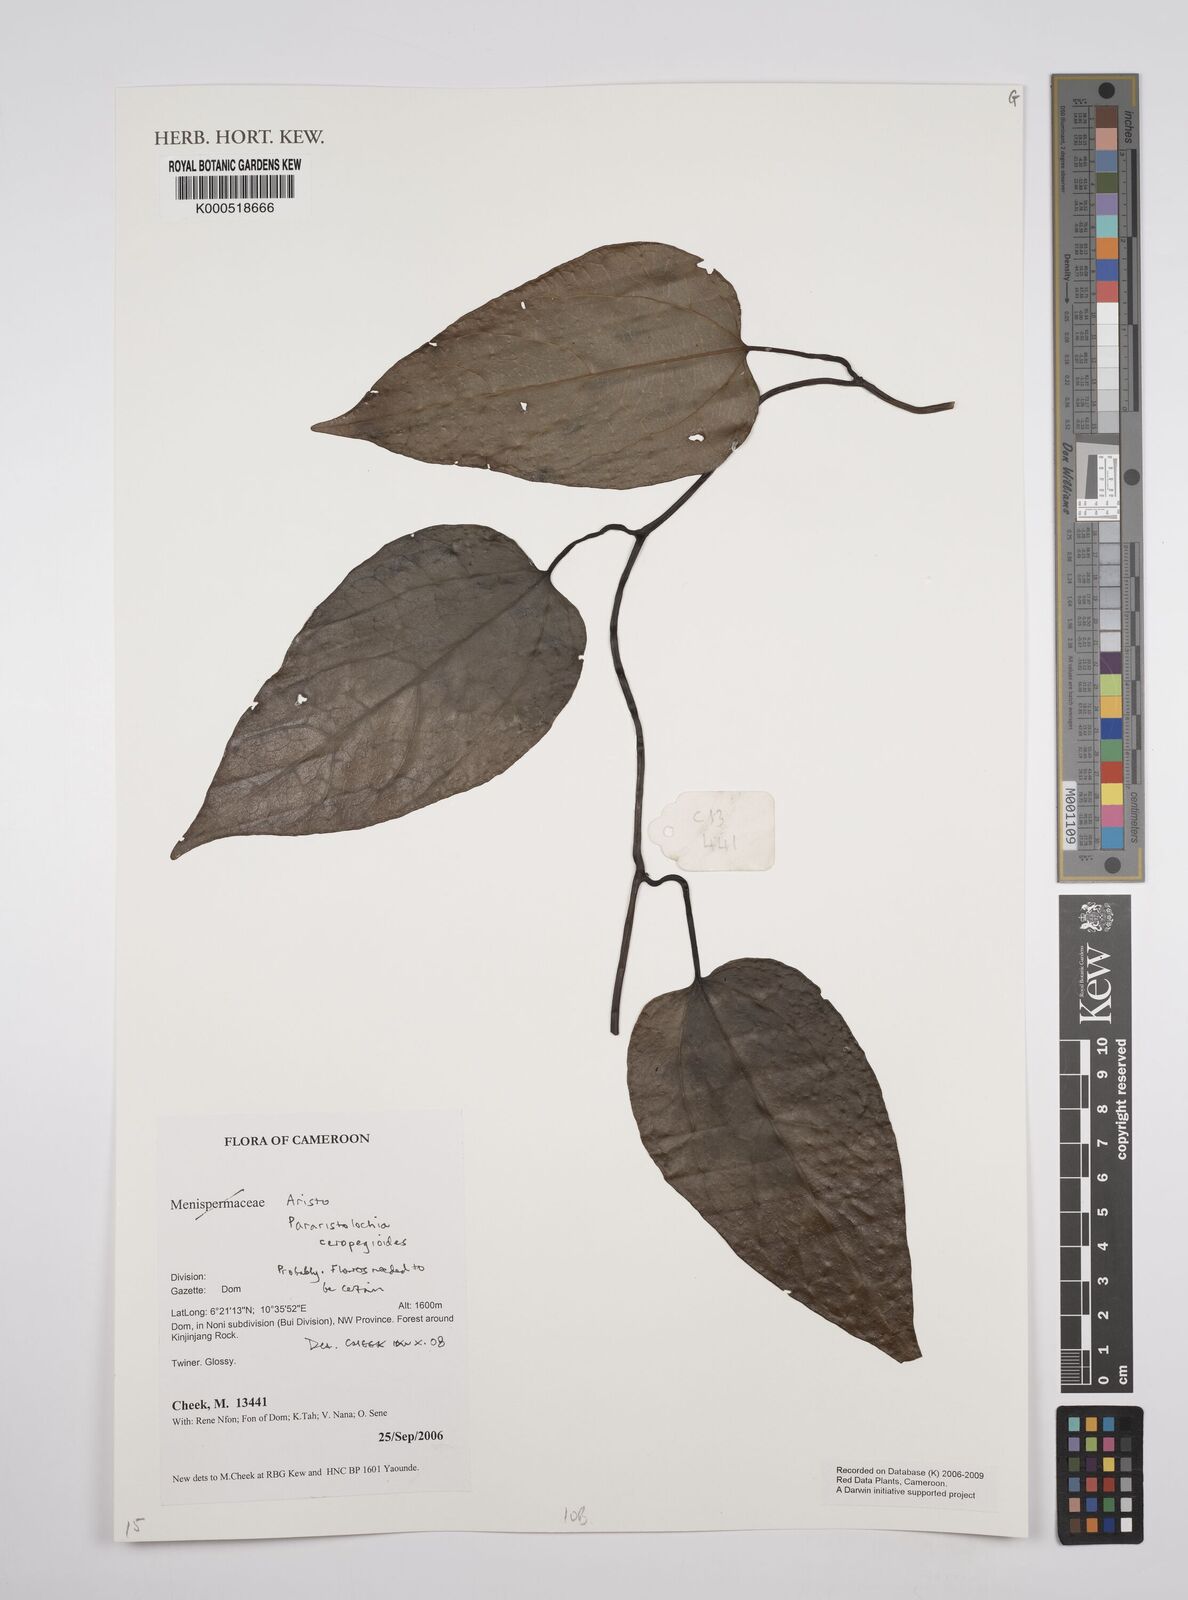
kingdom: Plantae
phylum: Tracheophyta
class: Magnoliopsida
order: Piperales
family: Aristolochiaceae
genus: Aristolochia
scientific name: Aristolochia ceropegioides
